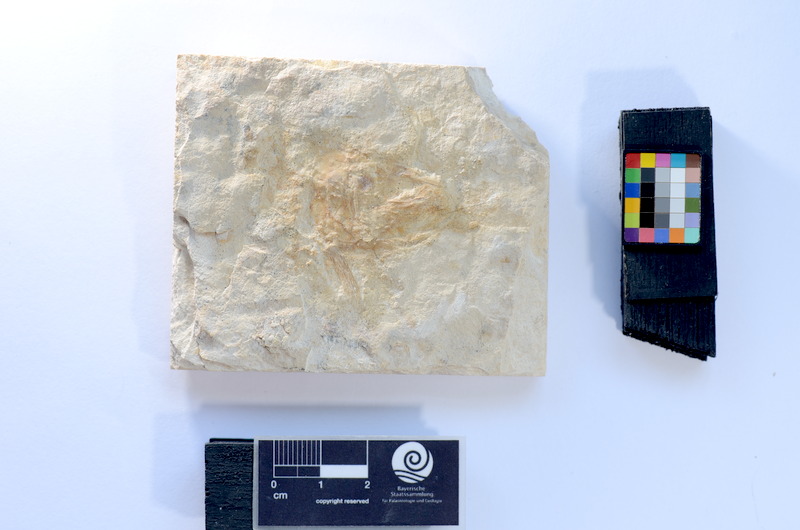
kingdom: Animalia
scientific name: Animalia
